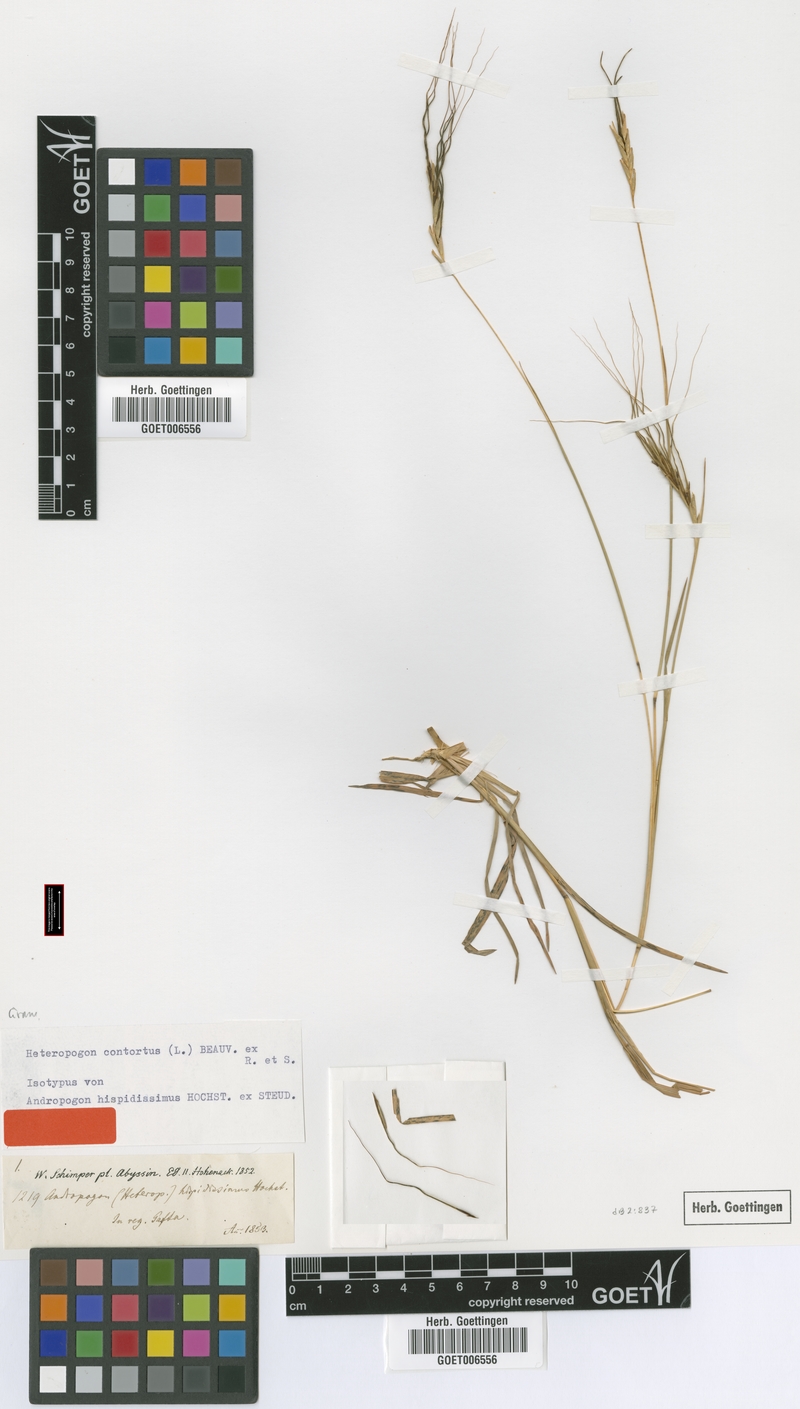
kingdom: Plantae
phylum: Tracheophyta
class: Liliopsida
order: Poales
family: Poaceae
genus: Heteropogon
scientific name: Heteropogon contortus
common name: Tanglehead
